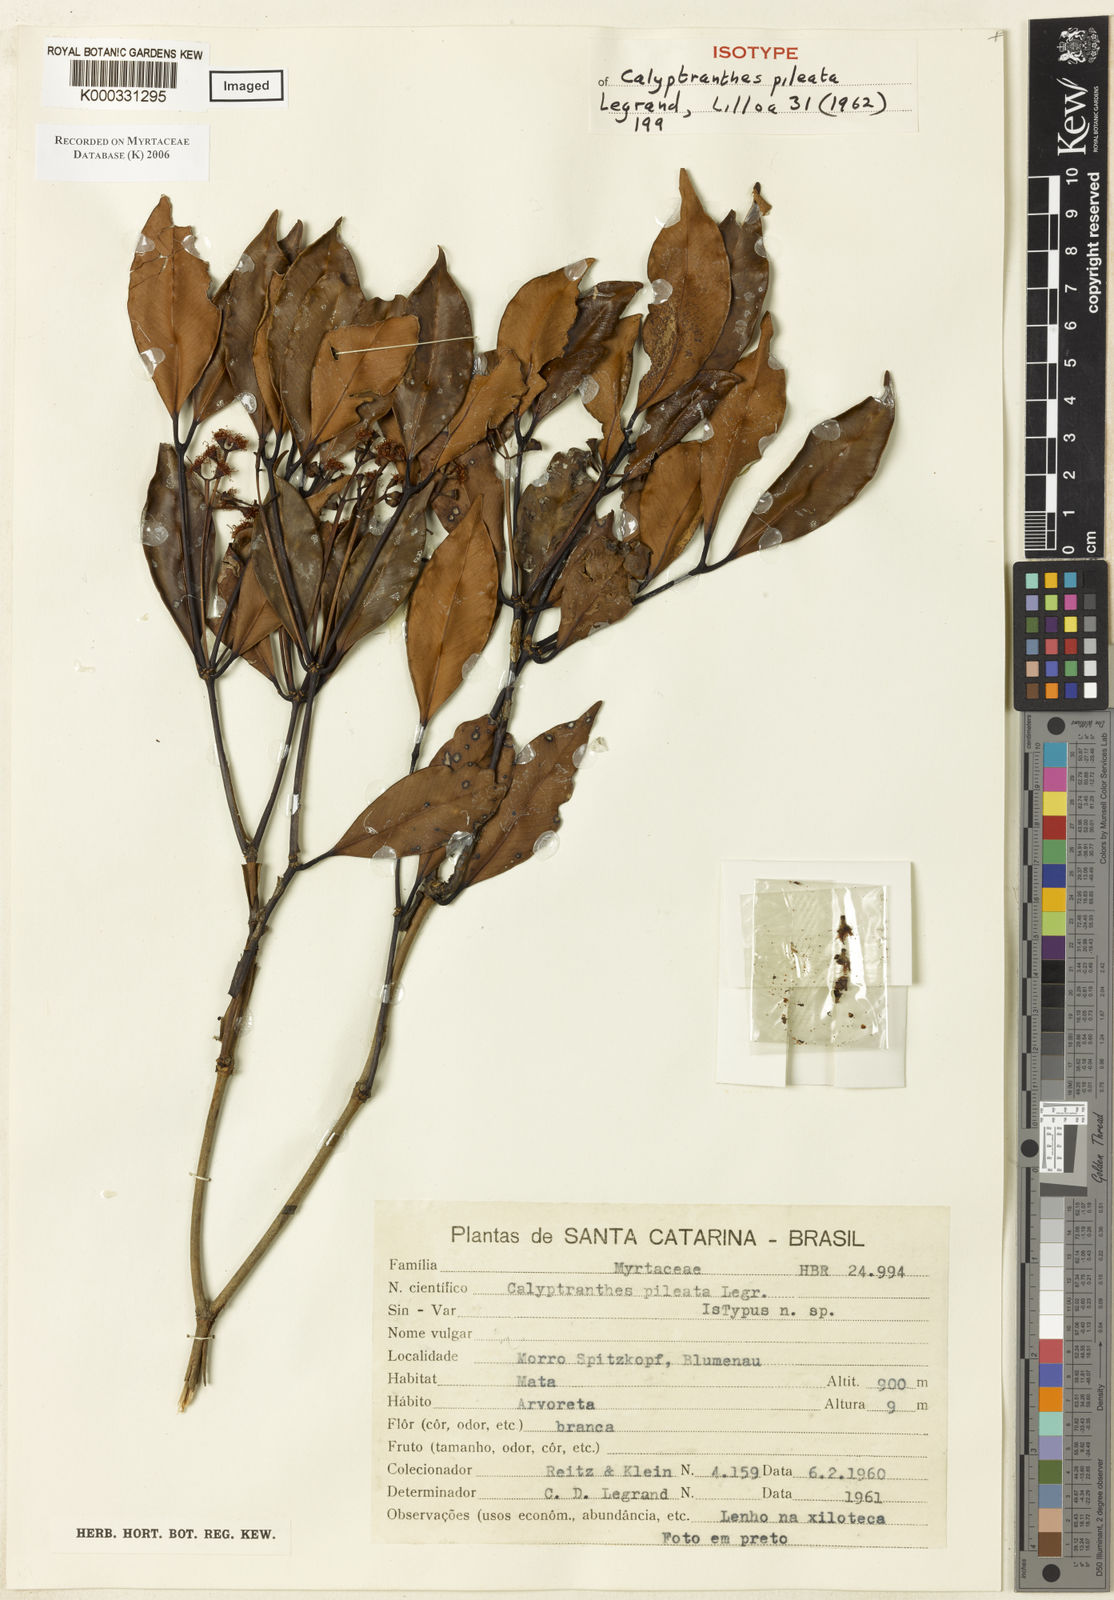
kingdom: Plantae
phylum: Tracheophyta
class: Magnoliopsida
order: Myrtales
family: Myrtaceae
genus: Myrcia
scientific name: Myrcia pileata
